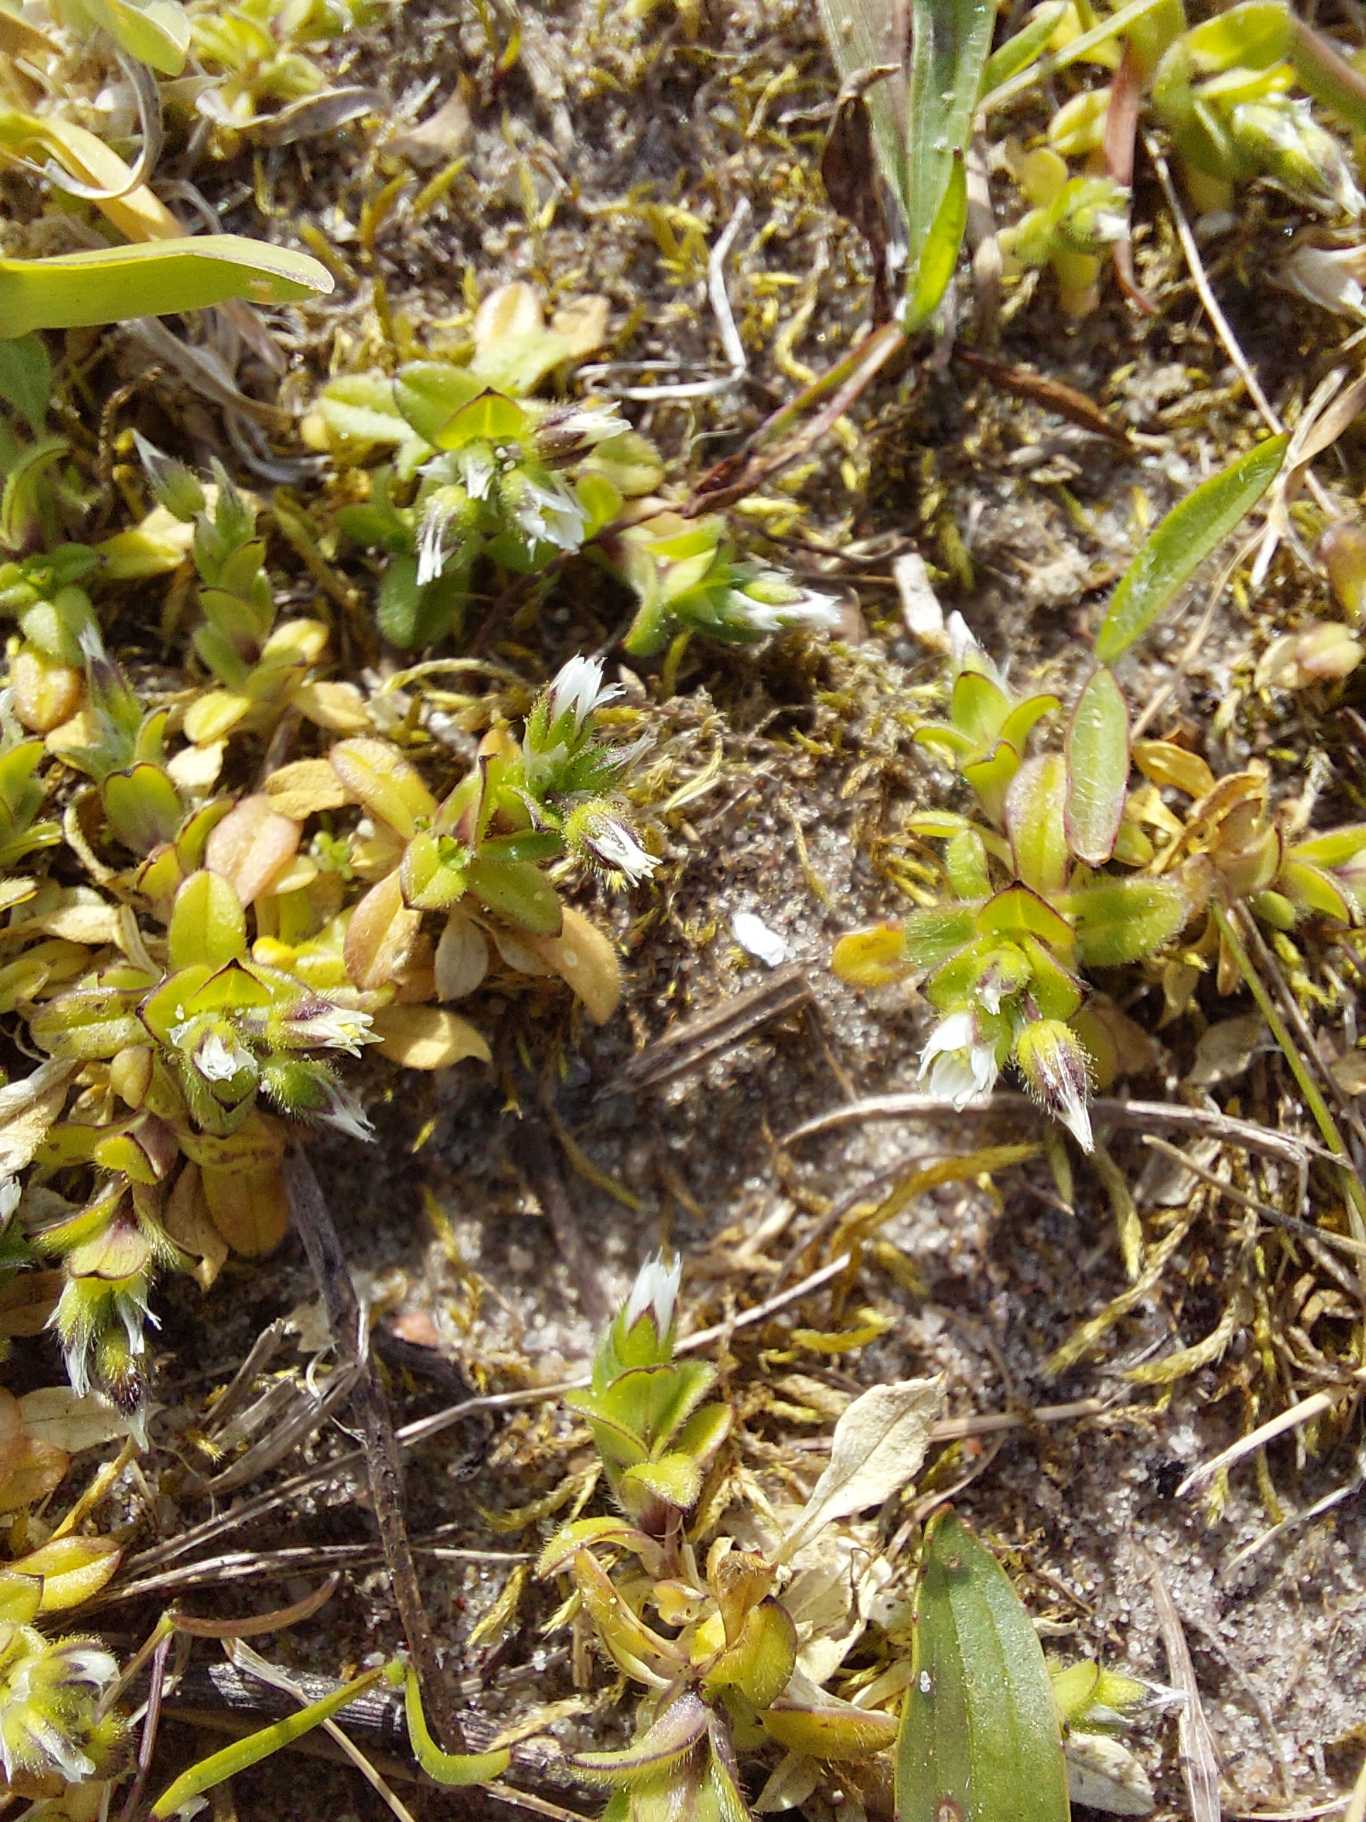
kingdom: Plantae
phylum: Tracheophyta
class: Magnoliopsida
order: Caryophyllales
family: Caryophyllaceae
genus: Cerastium
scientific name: Cerastium semidecandrum
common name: Femhannet hønsetarm
